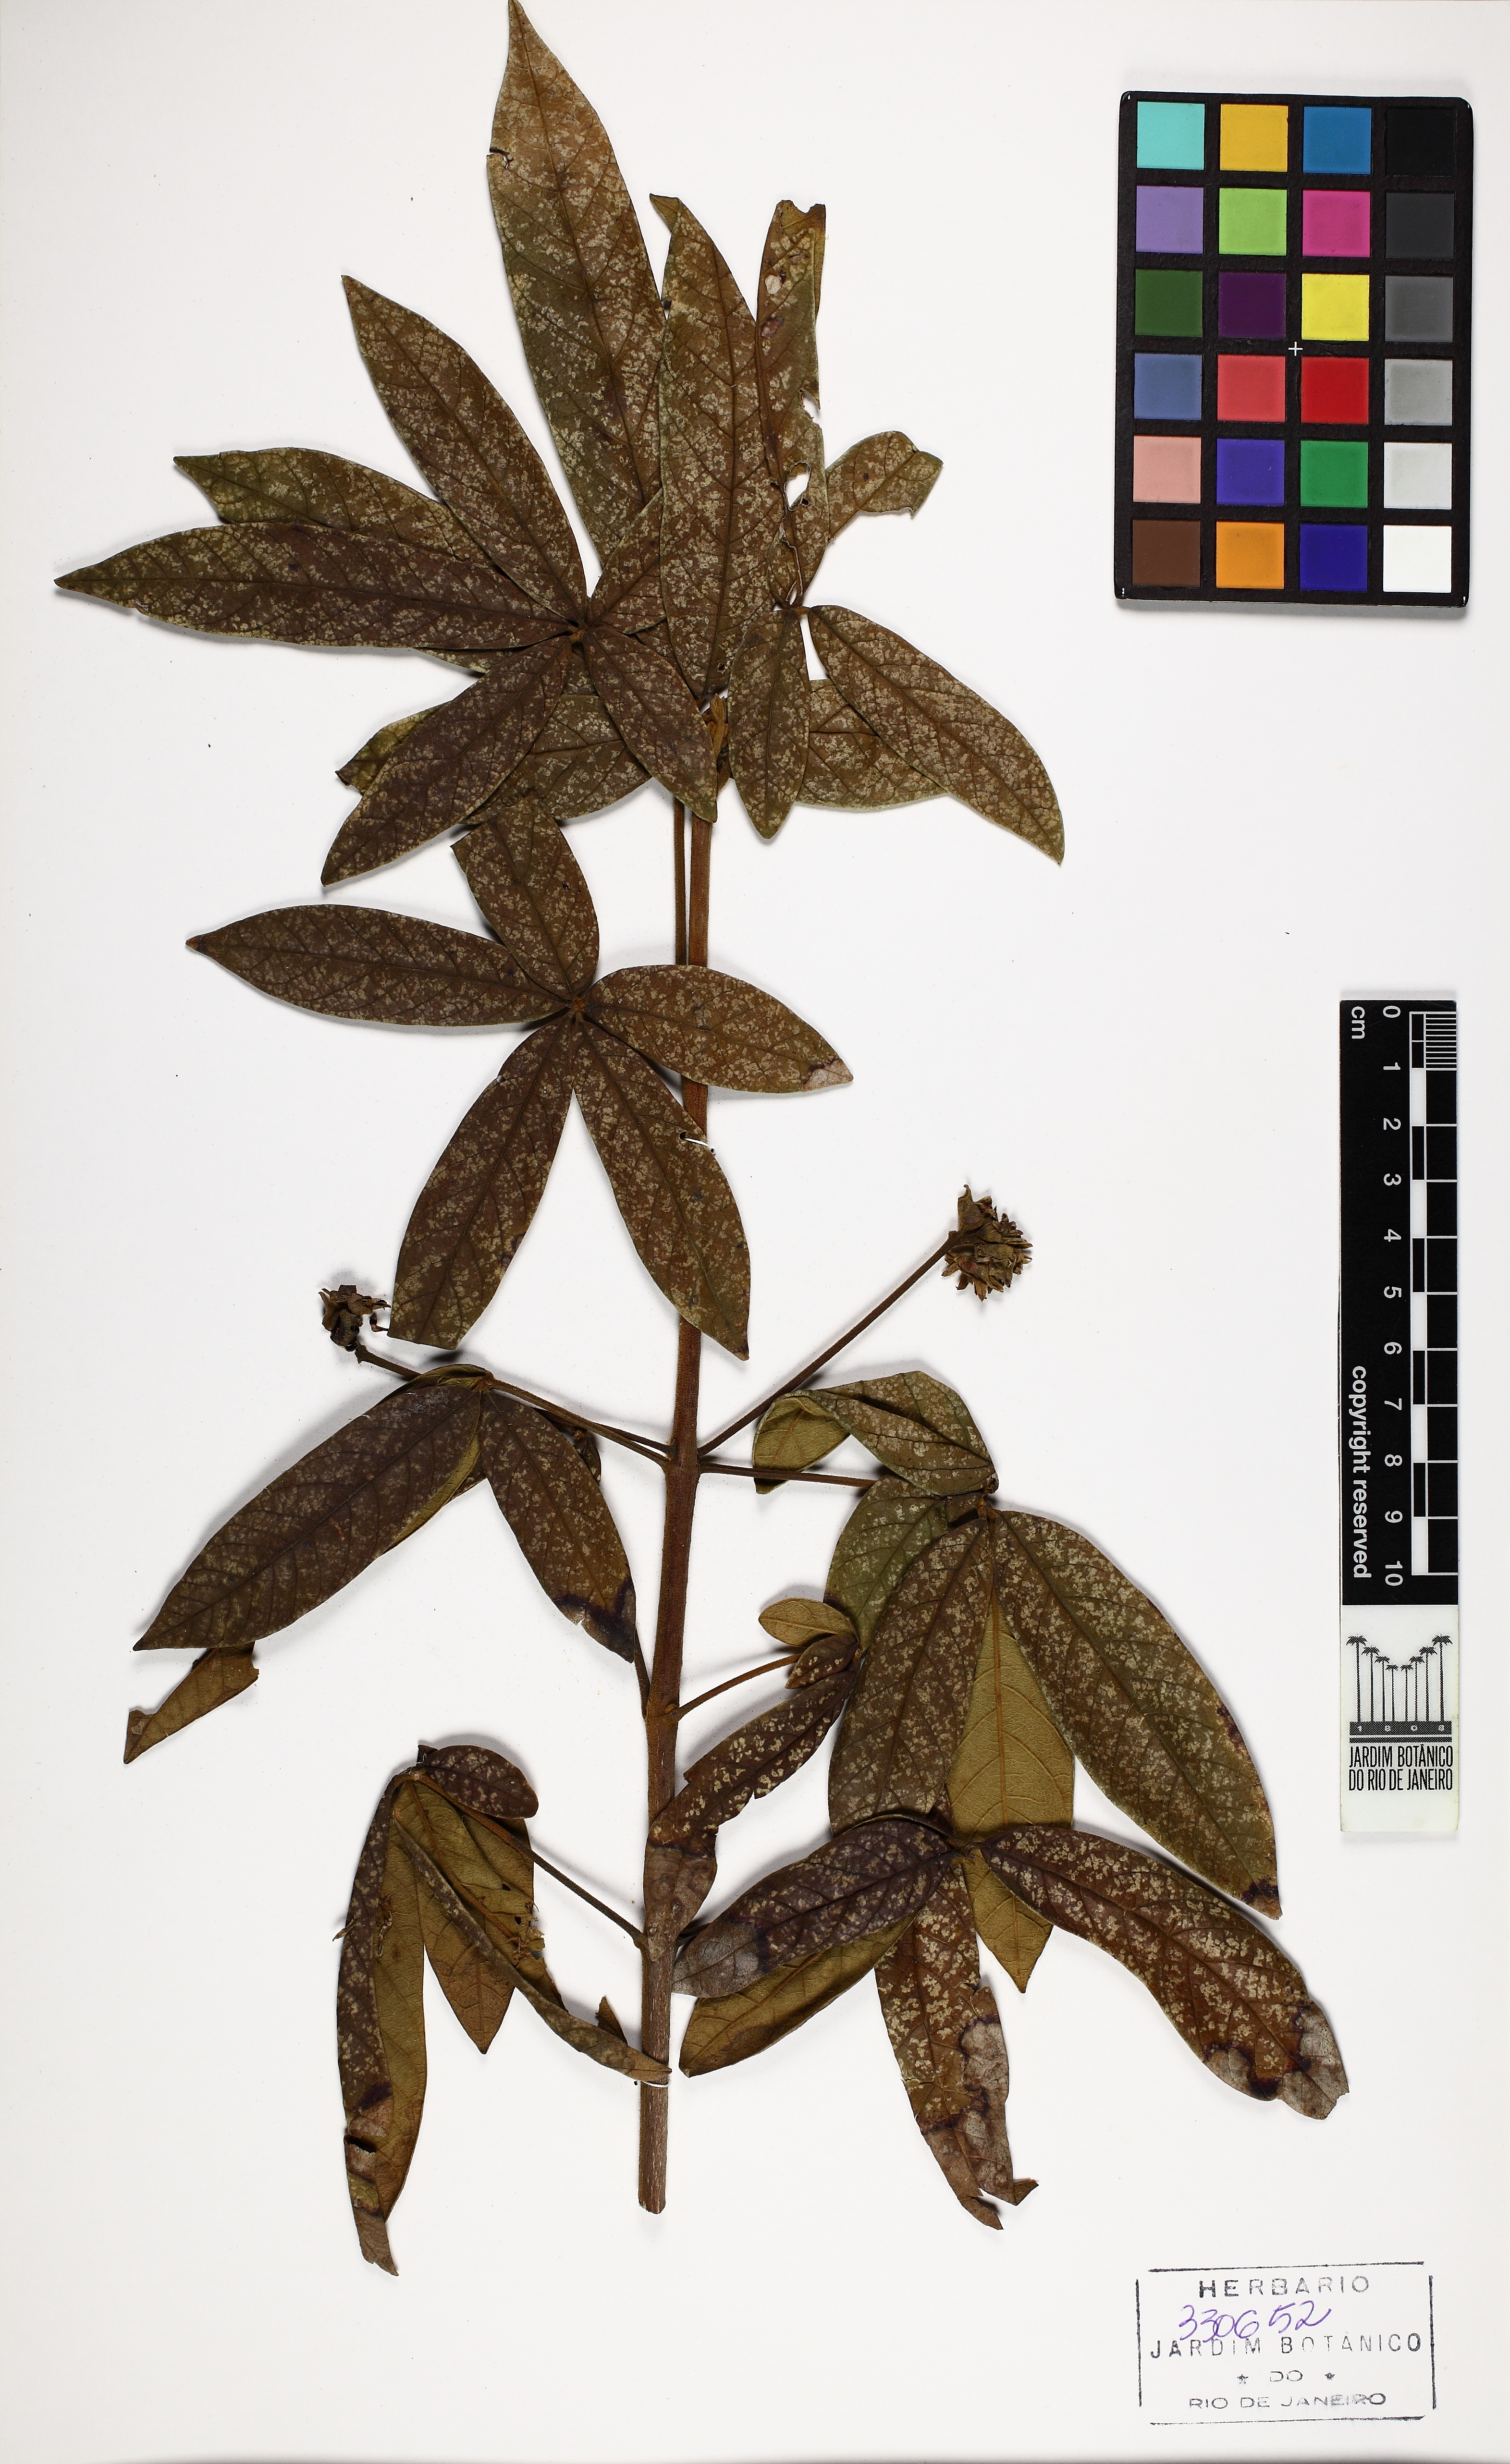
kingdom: Plantae
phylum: Tracheophyta
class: Magnoliopsida
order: Lamiales
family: Lamiaceae
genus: Vitex
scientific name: Vitex
